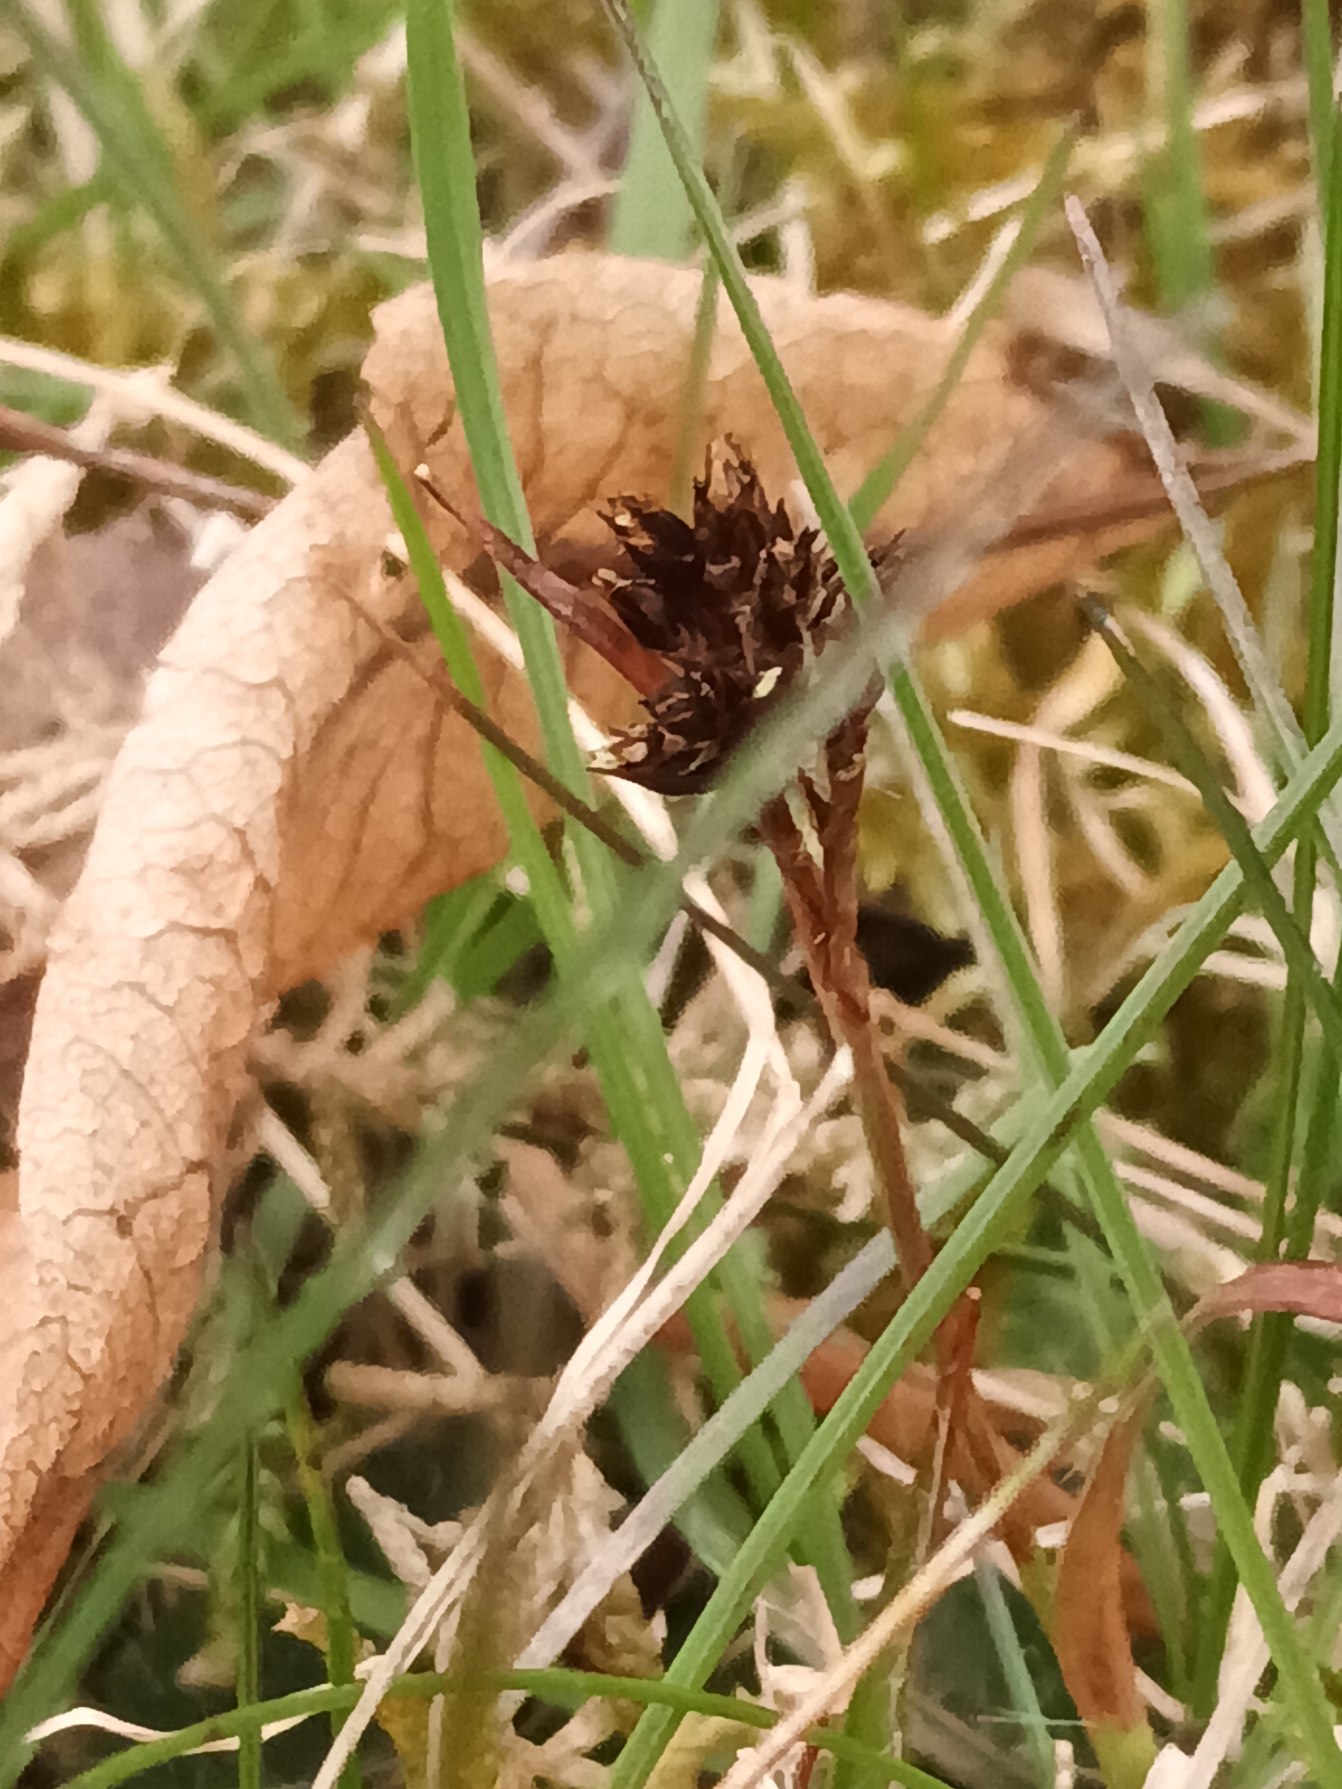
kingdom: Plantae
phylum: Tracheophyta
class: Liliopsida
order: Poales
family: Juncaceae
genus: Luzula
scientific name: Luzula campestris
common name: Mark-frytle
